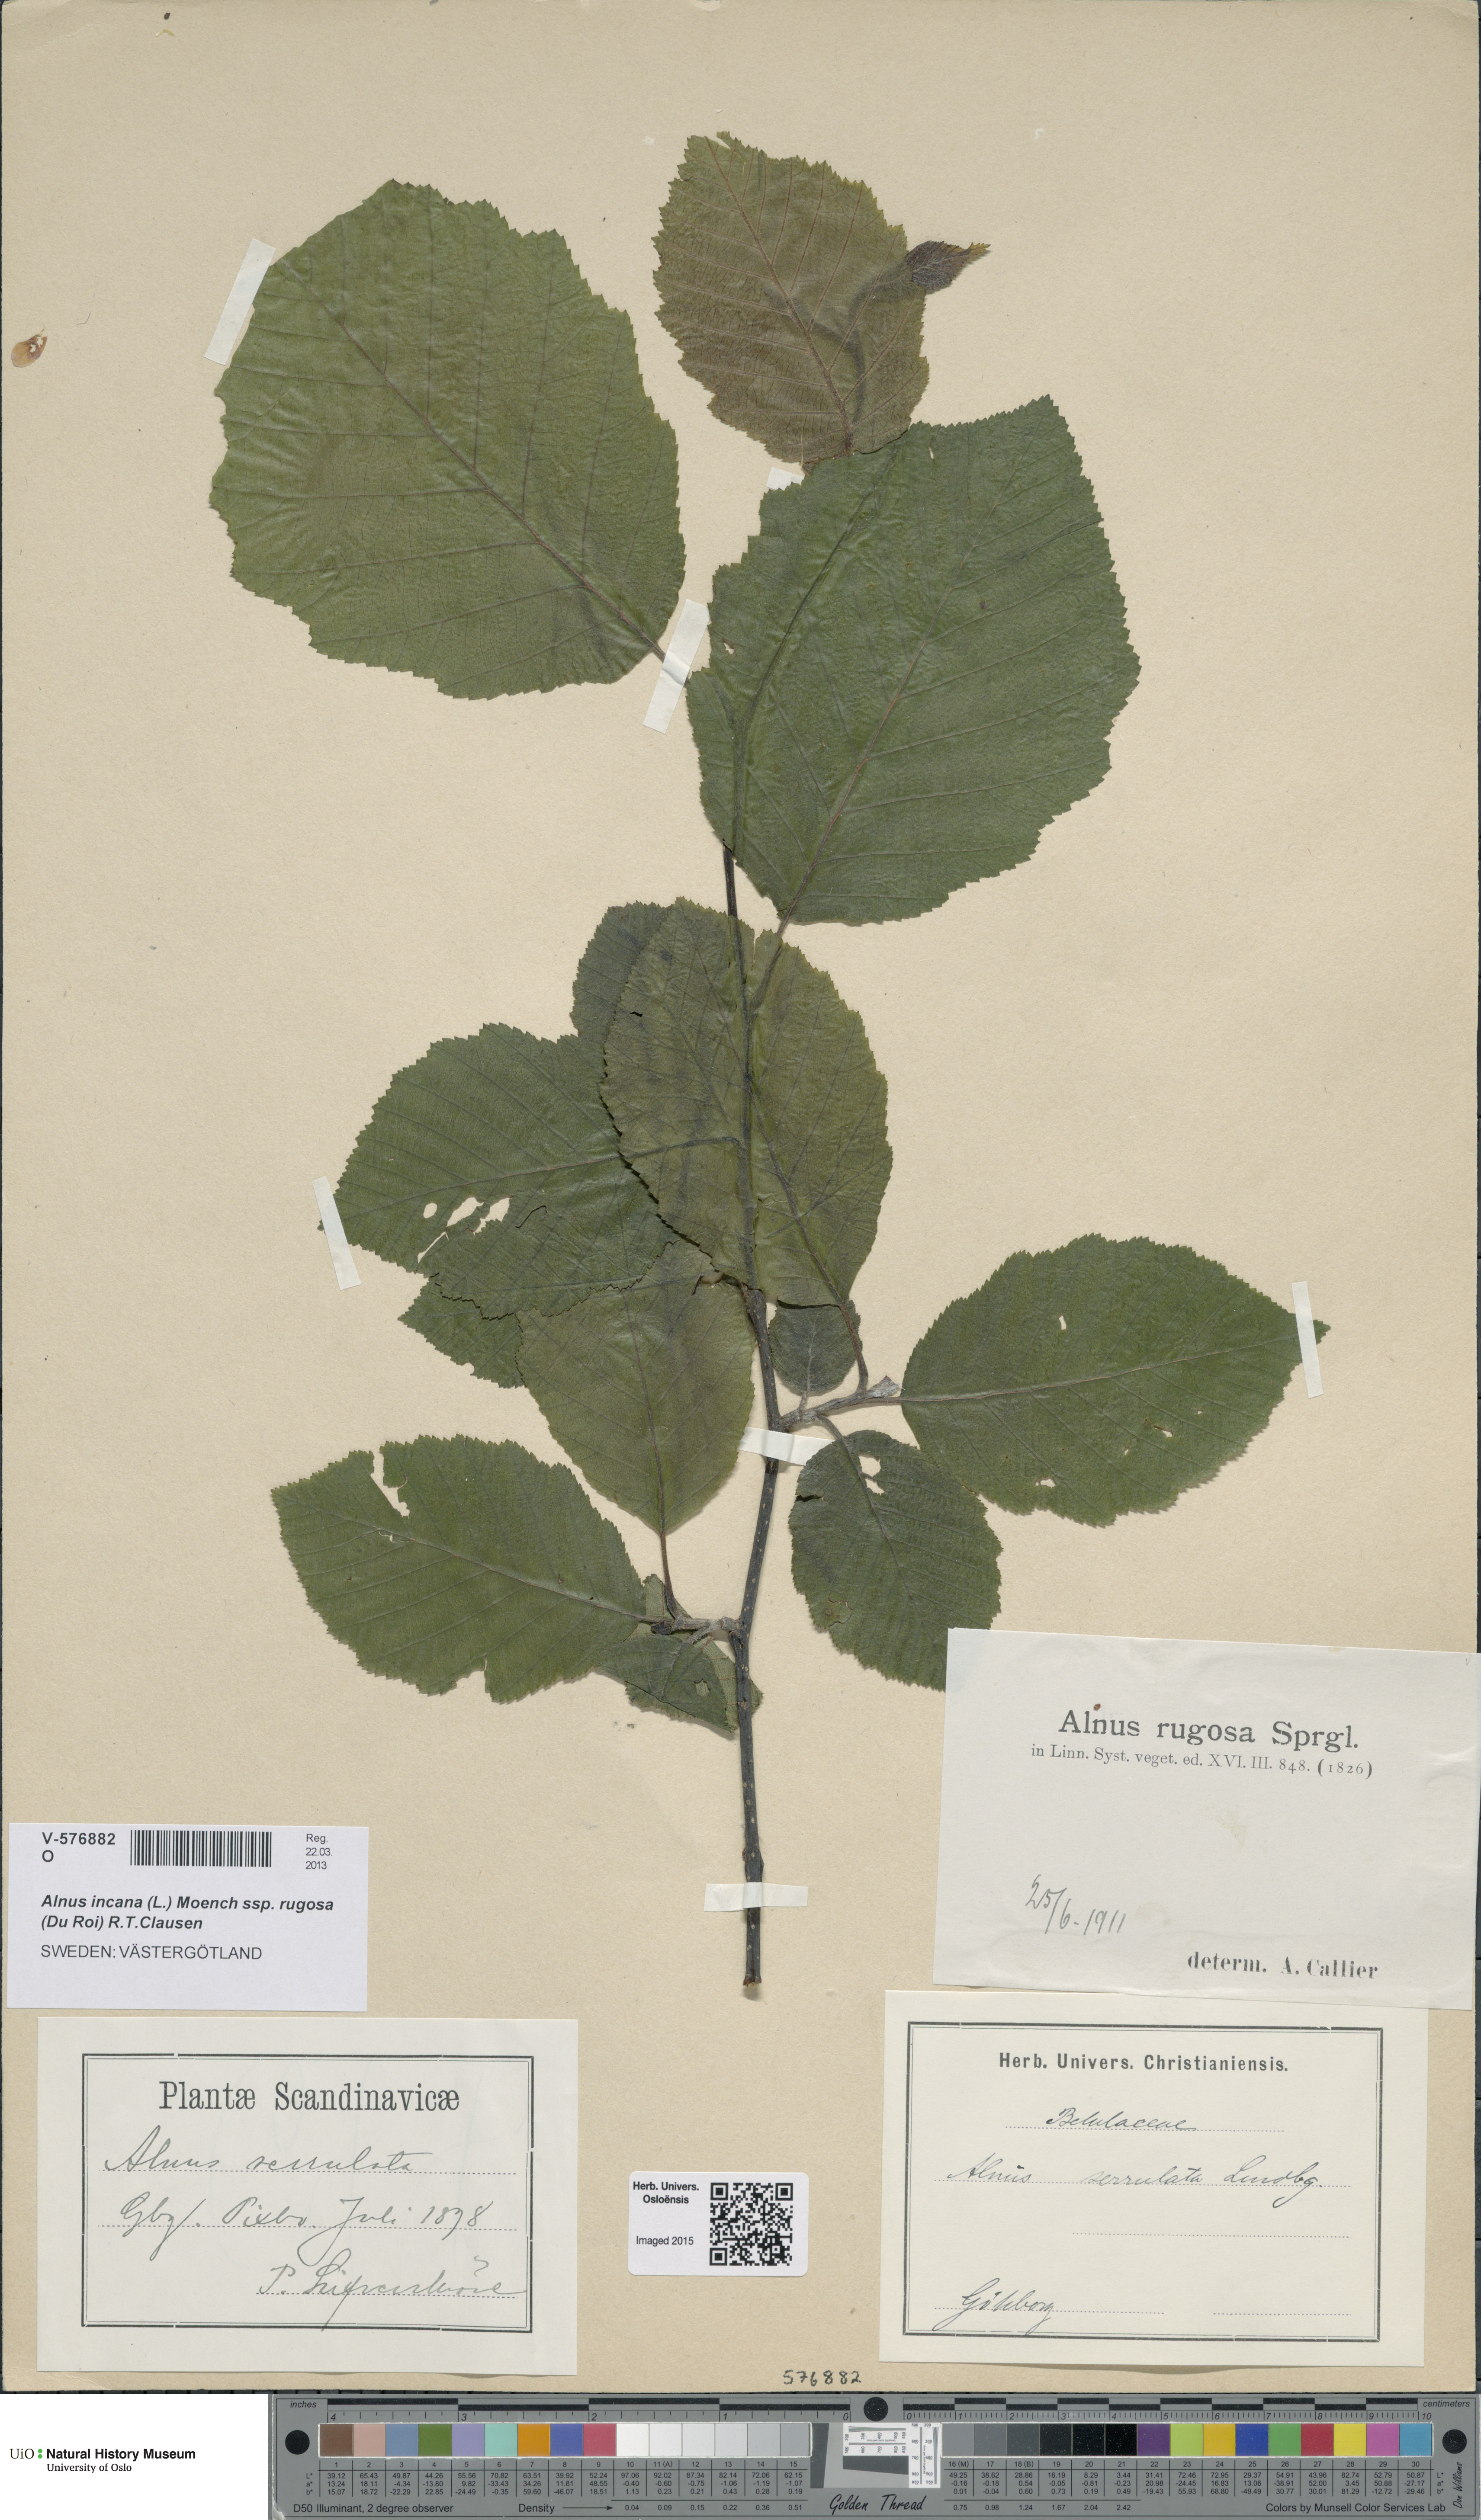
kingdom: Plantae
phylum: Tracheophyta
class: Magnoliopsida
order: Fagales
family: Betulaceae
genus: Alnus
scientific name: Alnus incana
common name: Grey alder
